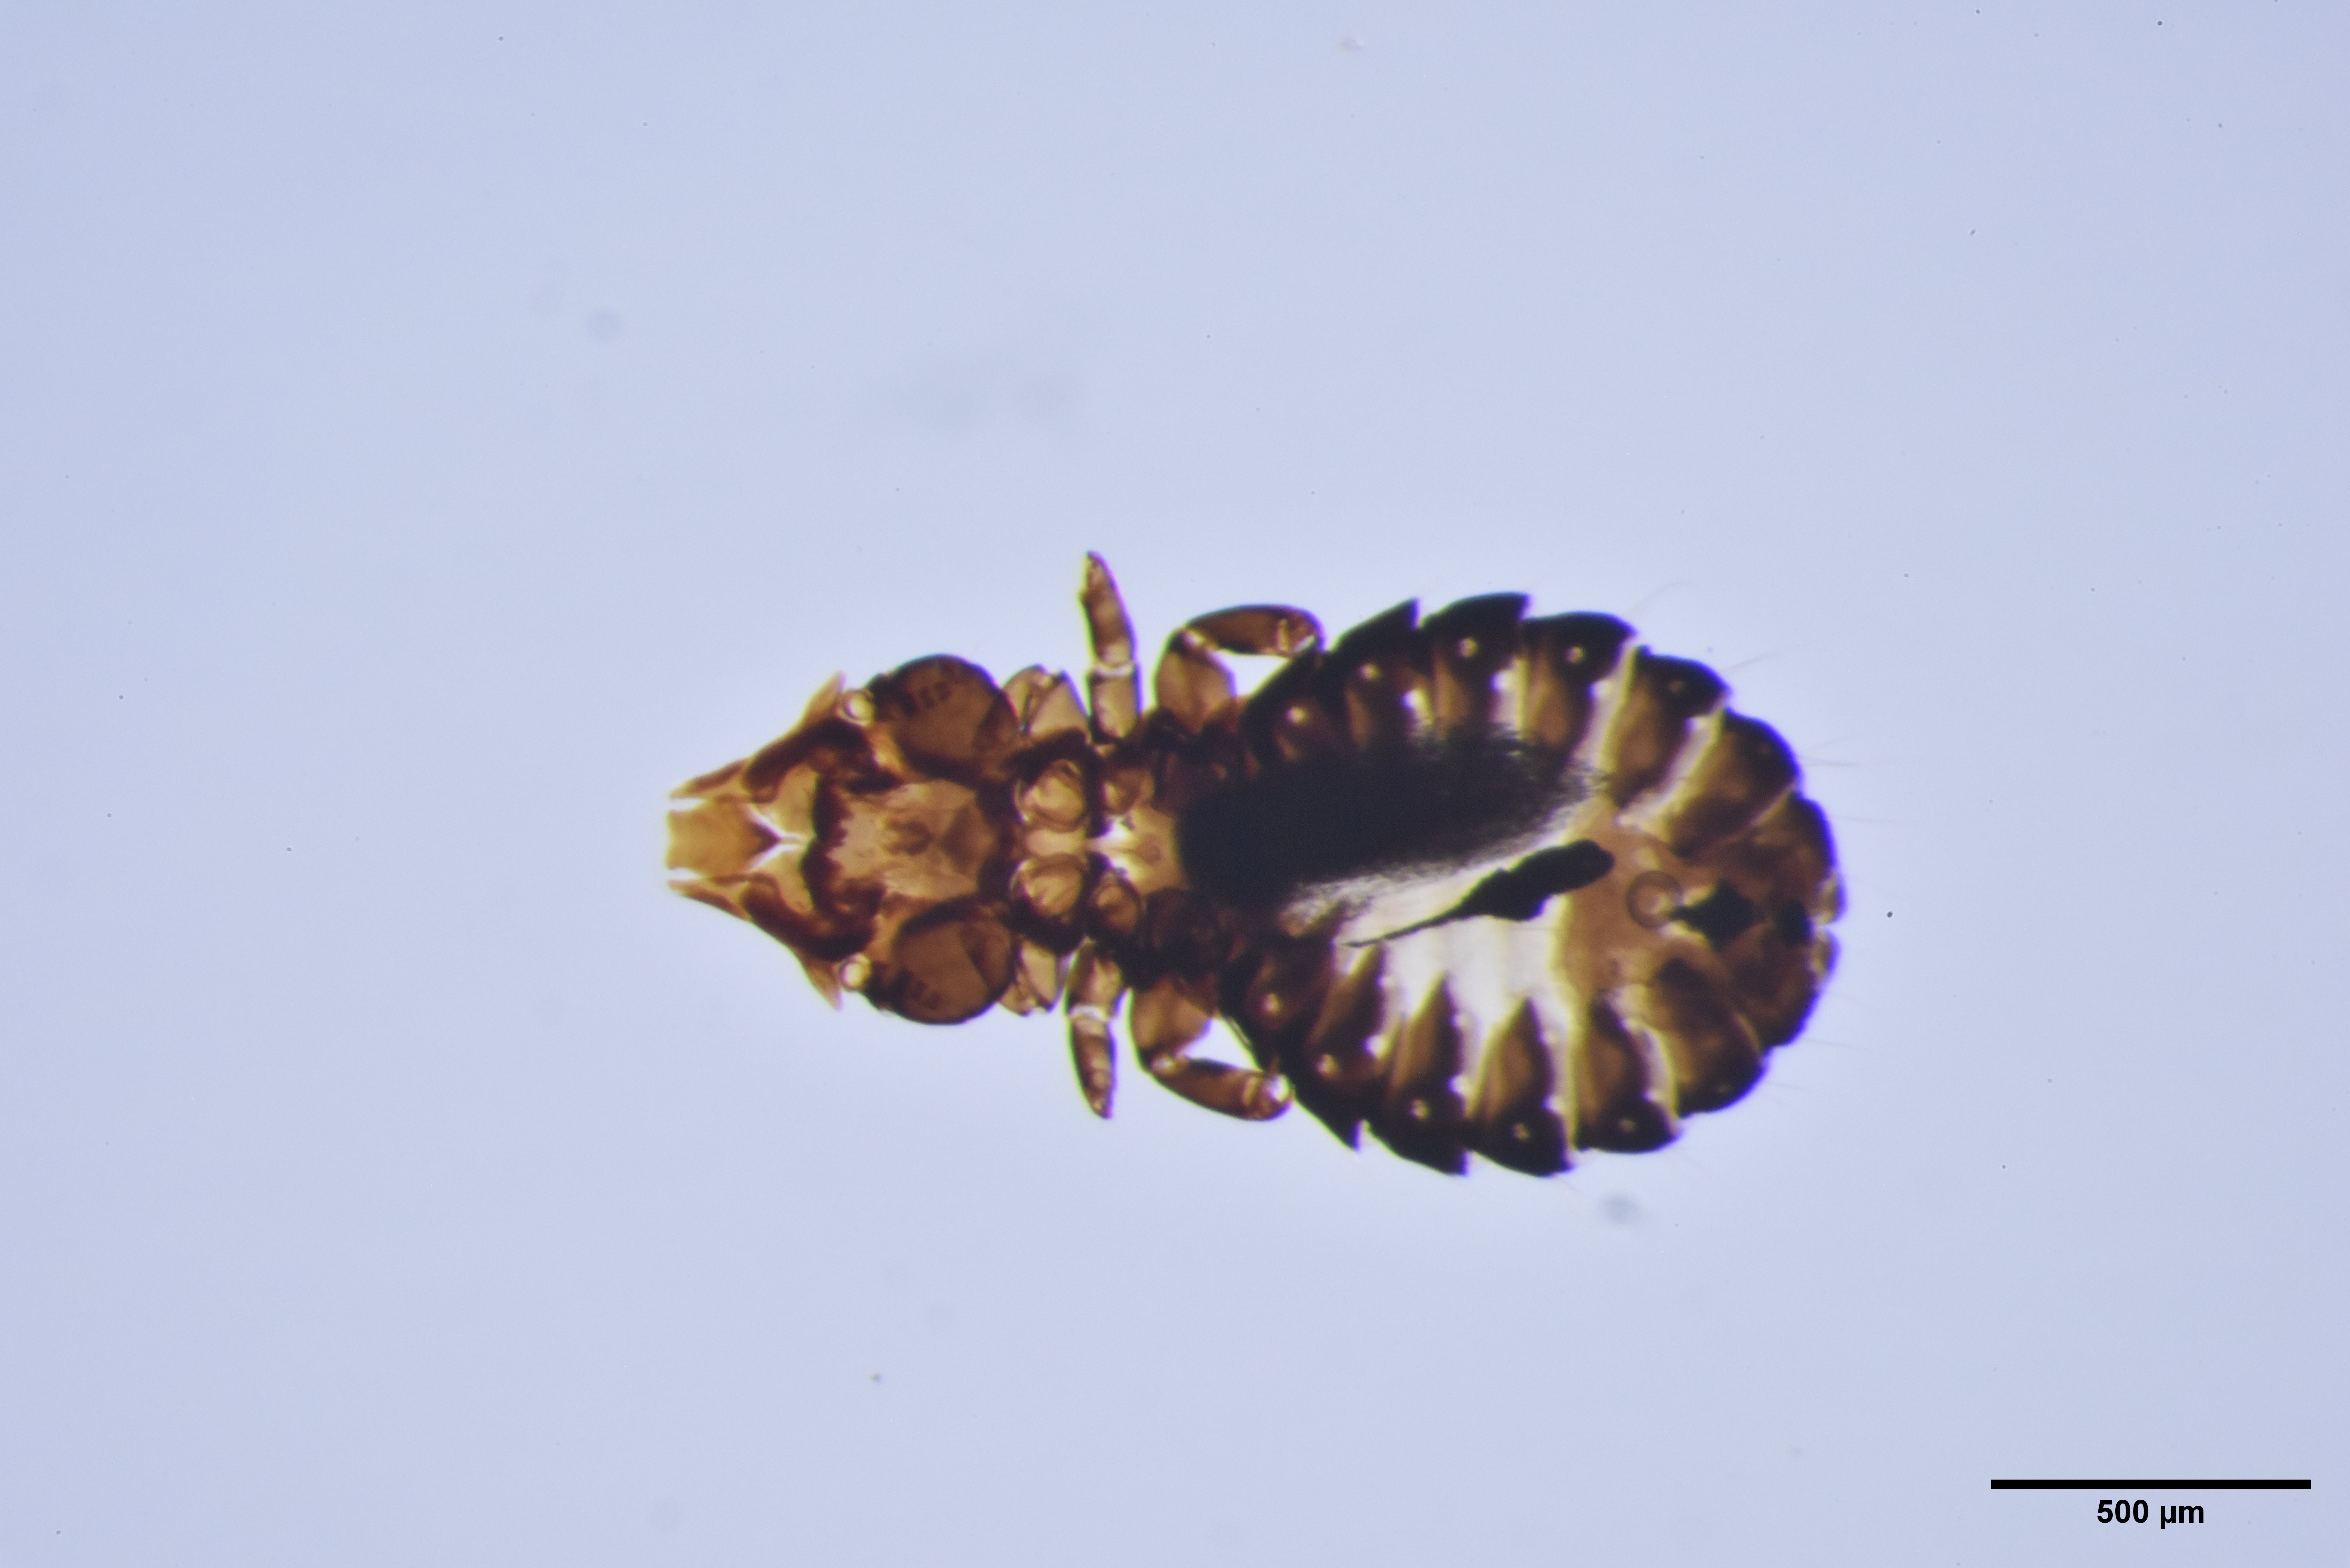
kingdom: Animalia
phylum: Arthropoda
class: Insecta
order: Psocodea
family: Philopteridae
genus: Saemundssonia
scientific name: Saemundssonia occidentalis
